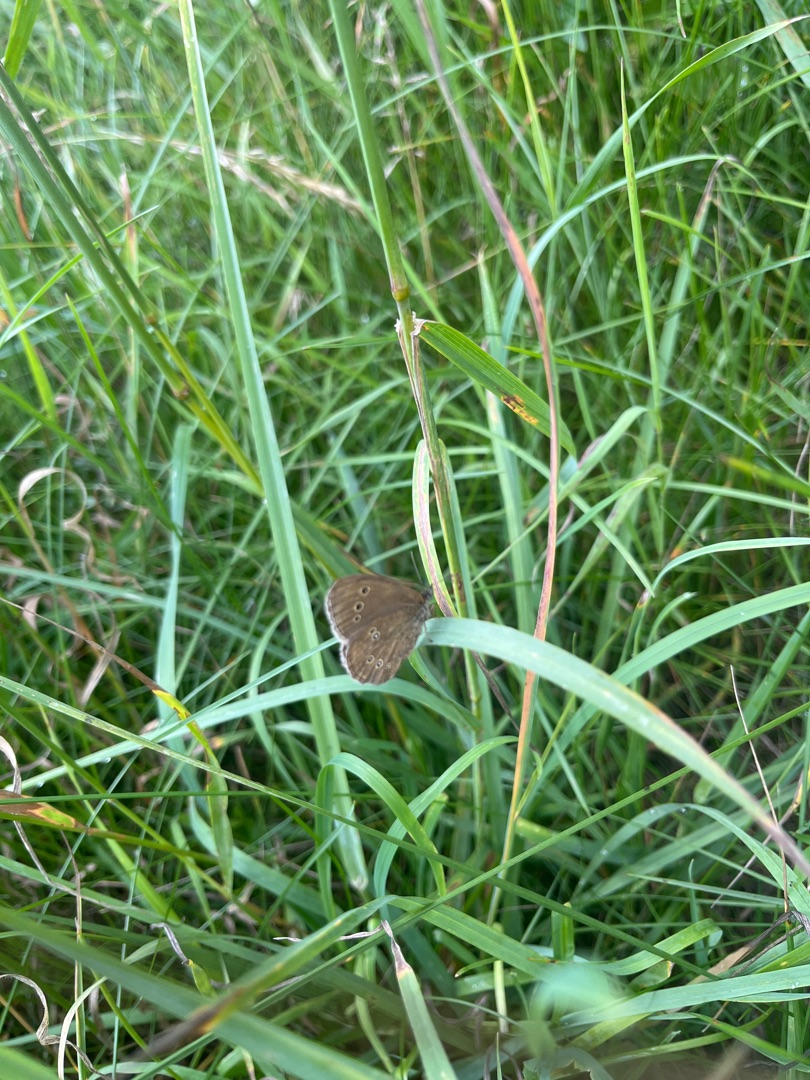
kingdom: Animalia
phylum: Arthropoda
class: Insecta
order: Lepidoptera
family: Nymphalidae
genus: Aphantopus
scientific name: Aphantopus hyperantus
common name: Engrandøje
